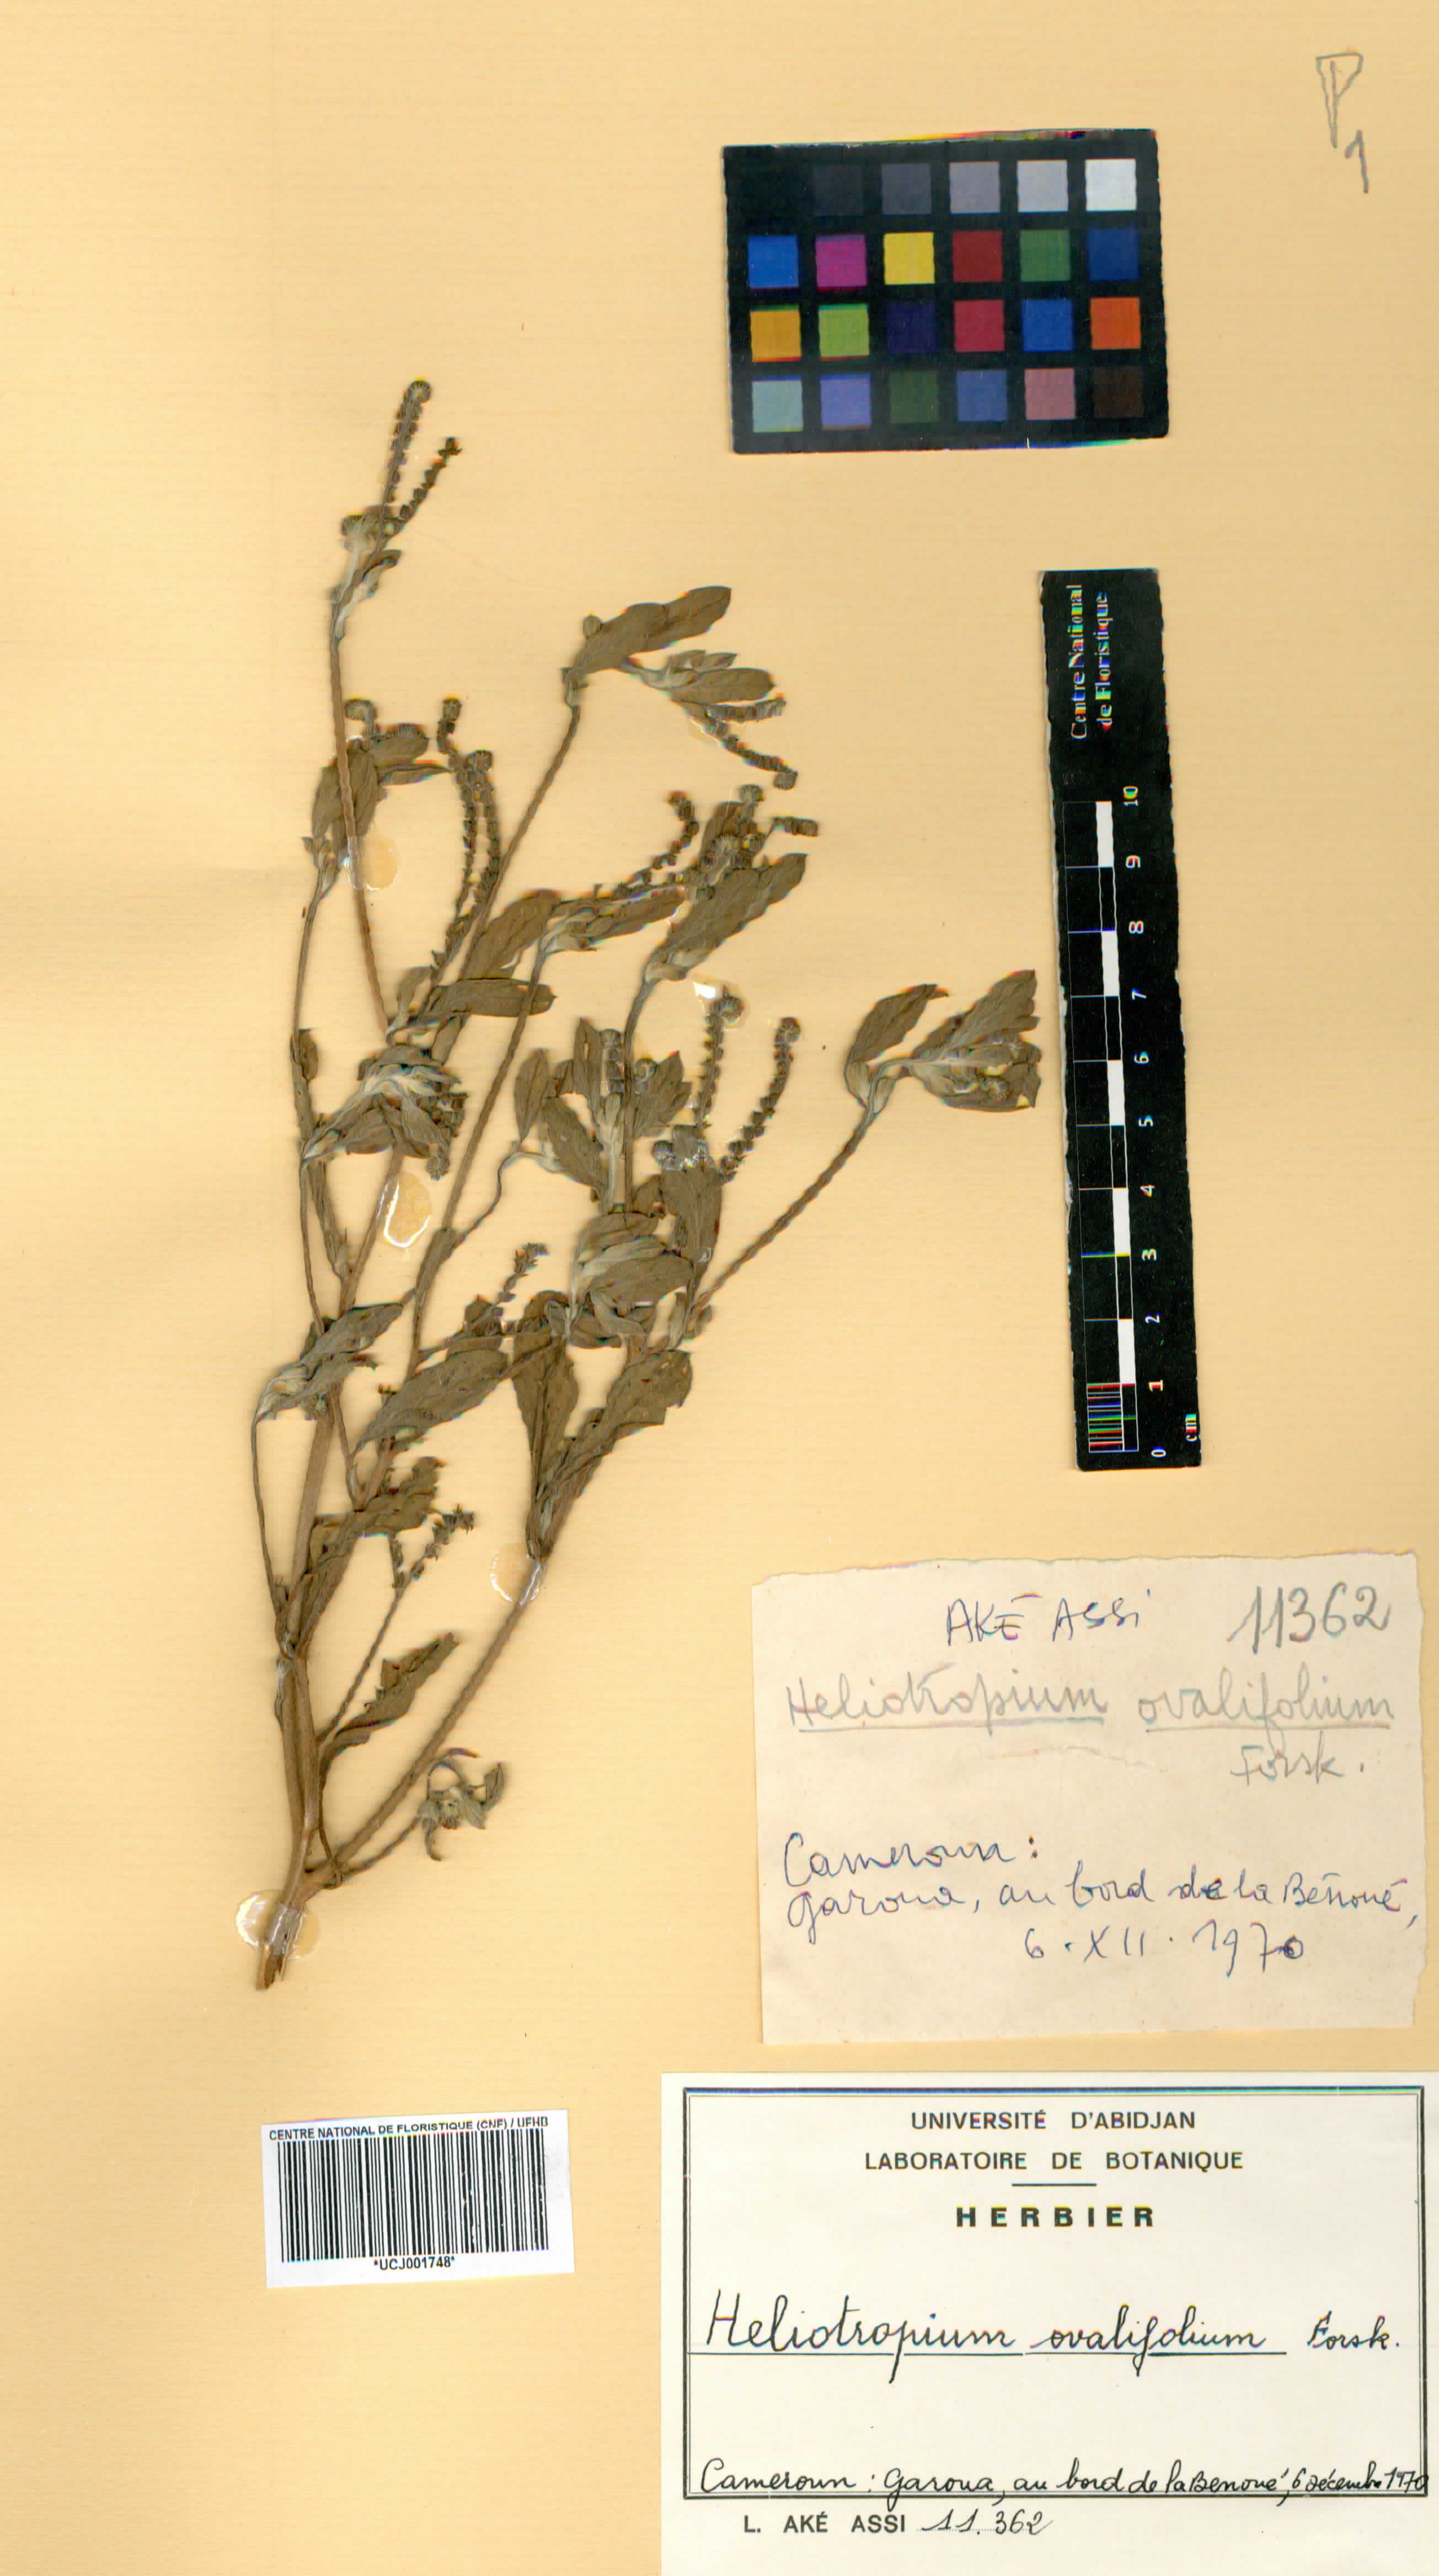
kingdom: Plantae
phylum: Tracheophyta
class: Magnoliopsida
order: Boraginales
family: Heliotropiaceae
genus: Euploca
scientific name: Euploca ovalifolia
